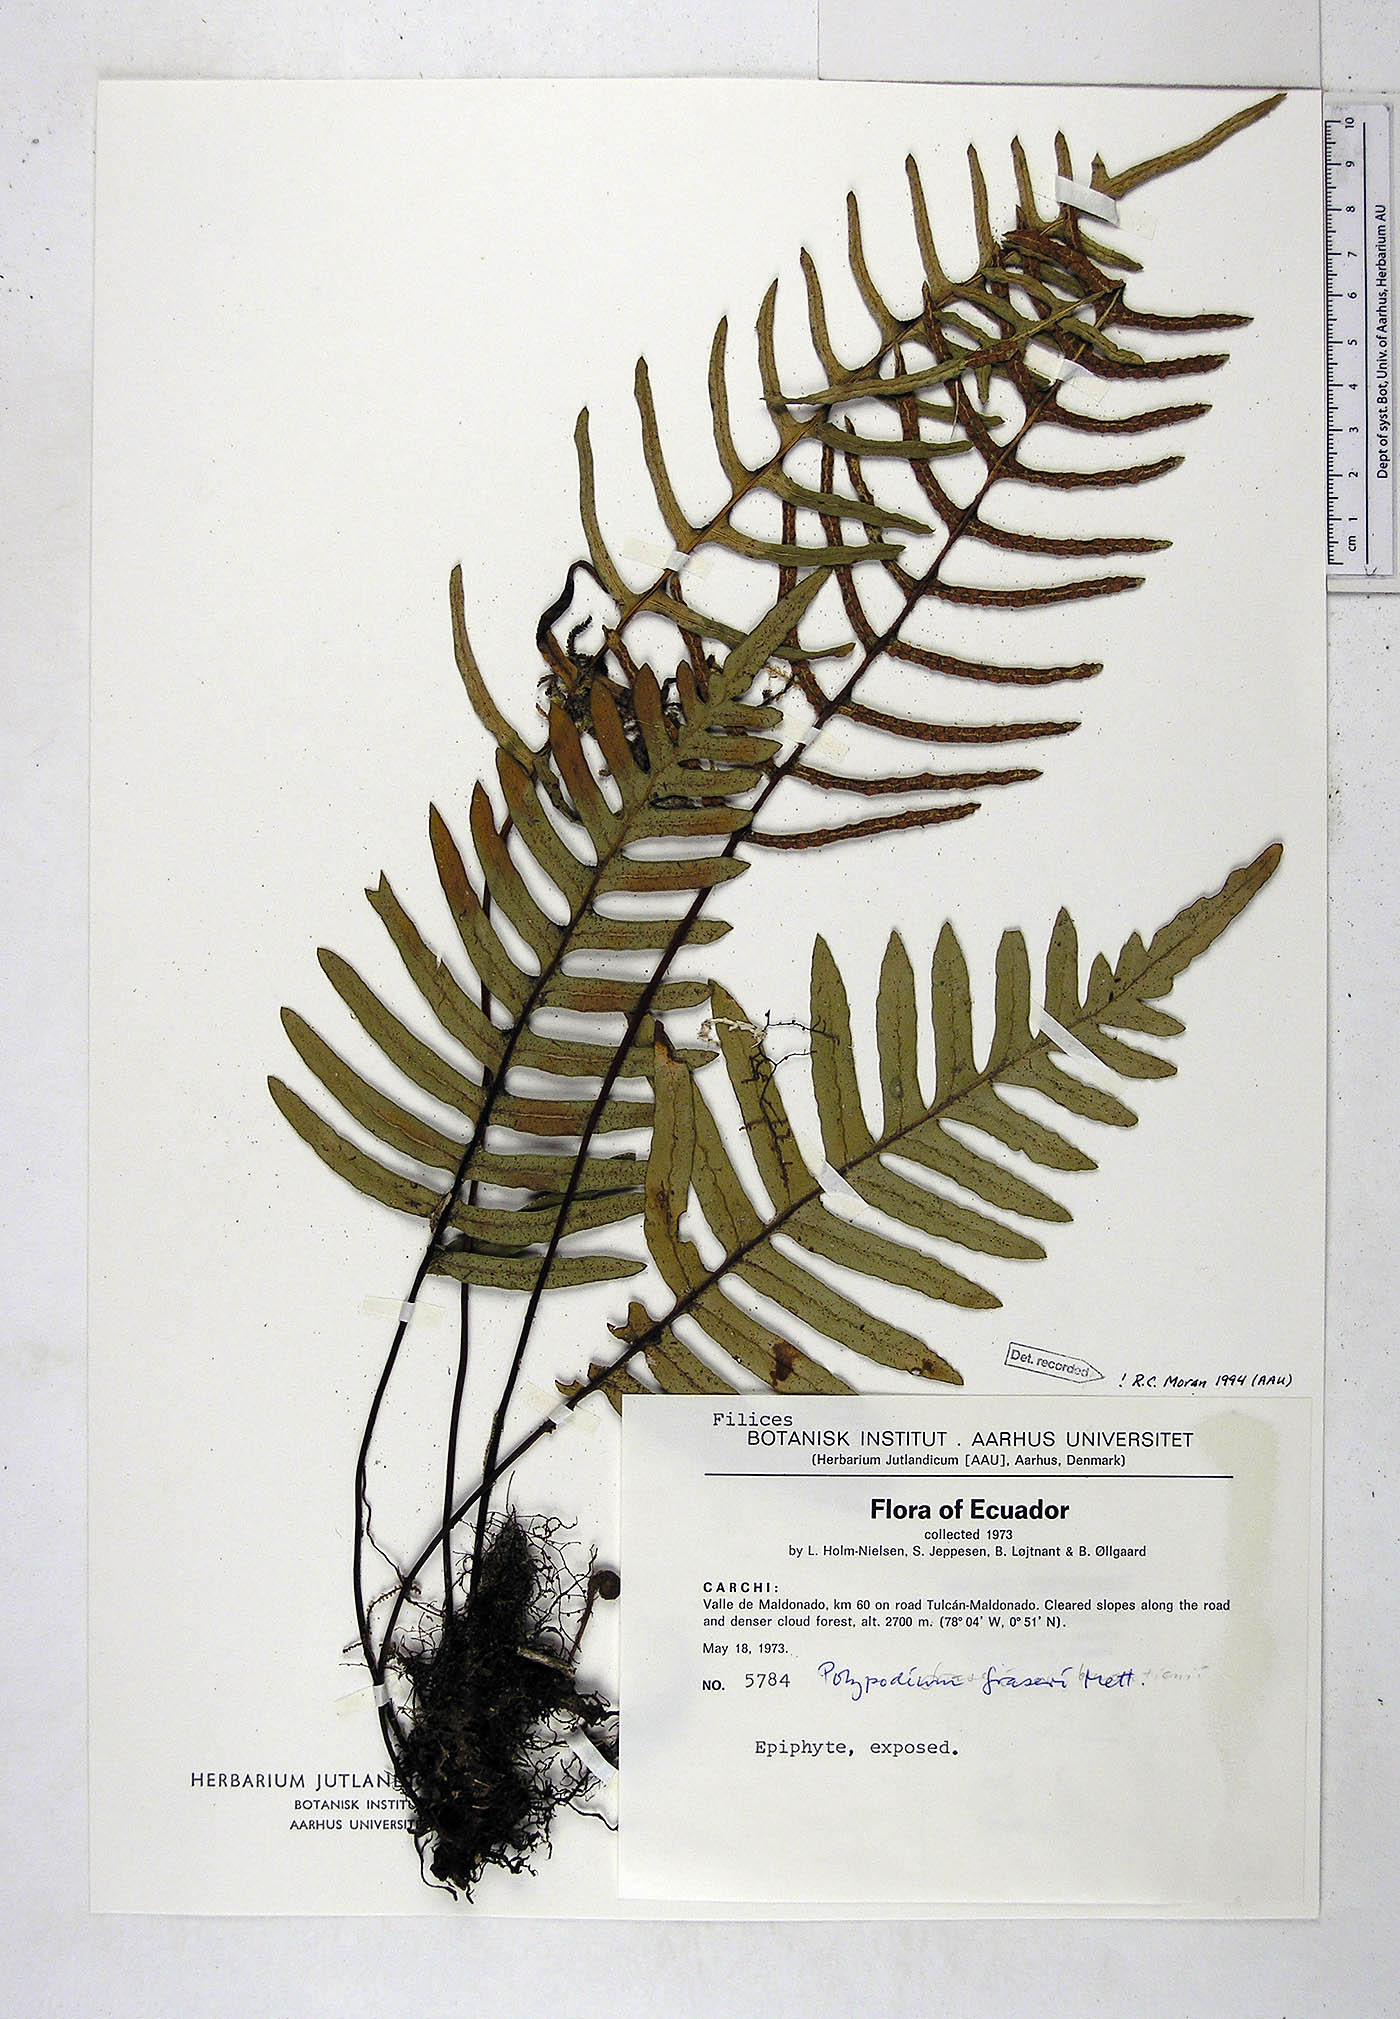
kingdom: Plantae
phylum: Tracheophyta
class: Polypodiopsida
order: Polypodiales
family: Polypodiaceae
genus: Pleopeltis
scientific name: Pleopeltis fraseri
